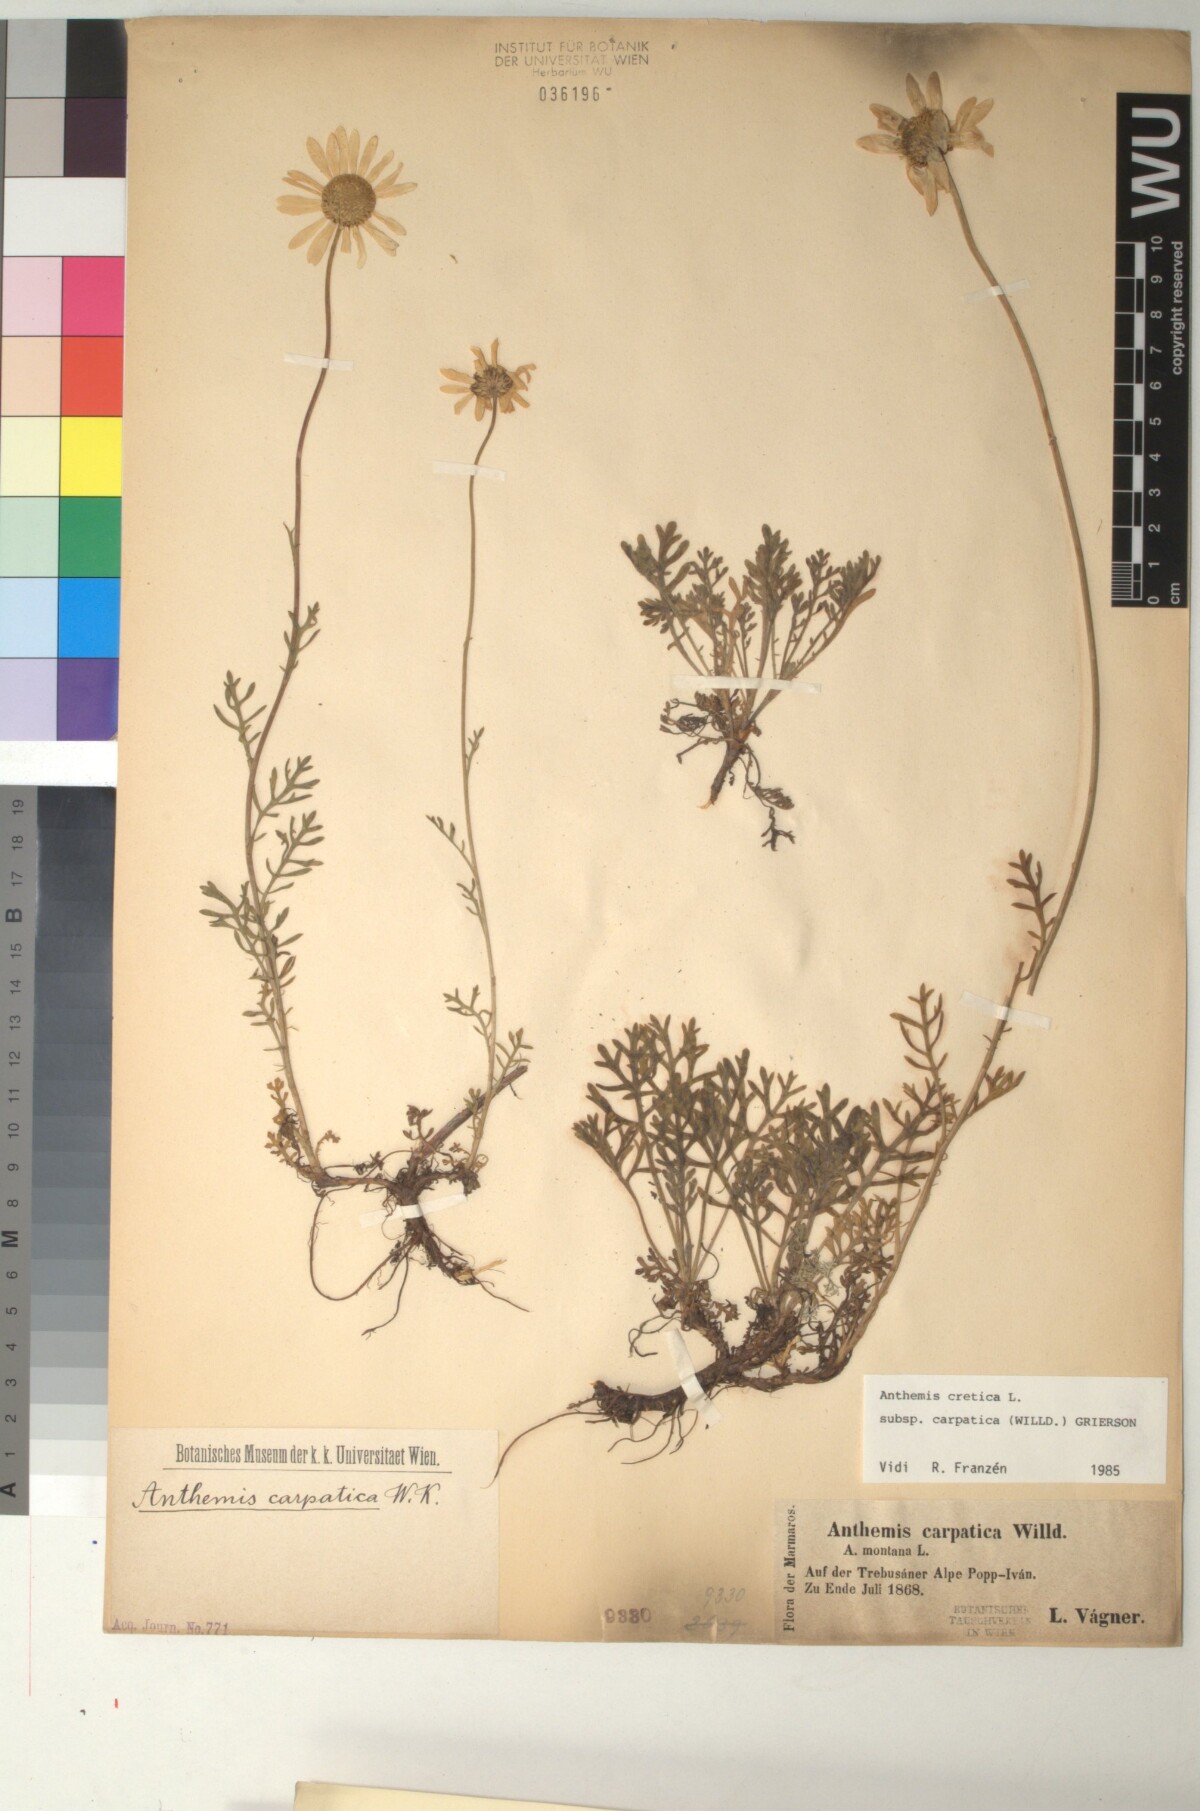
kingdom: Plantae
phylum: Tracheophyta
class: Magnoliopsida
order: Asterales
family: Asteraceae
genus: Anthemis
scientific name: Anthemis cretica
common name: Mountain dog-daisy
